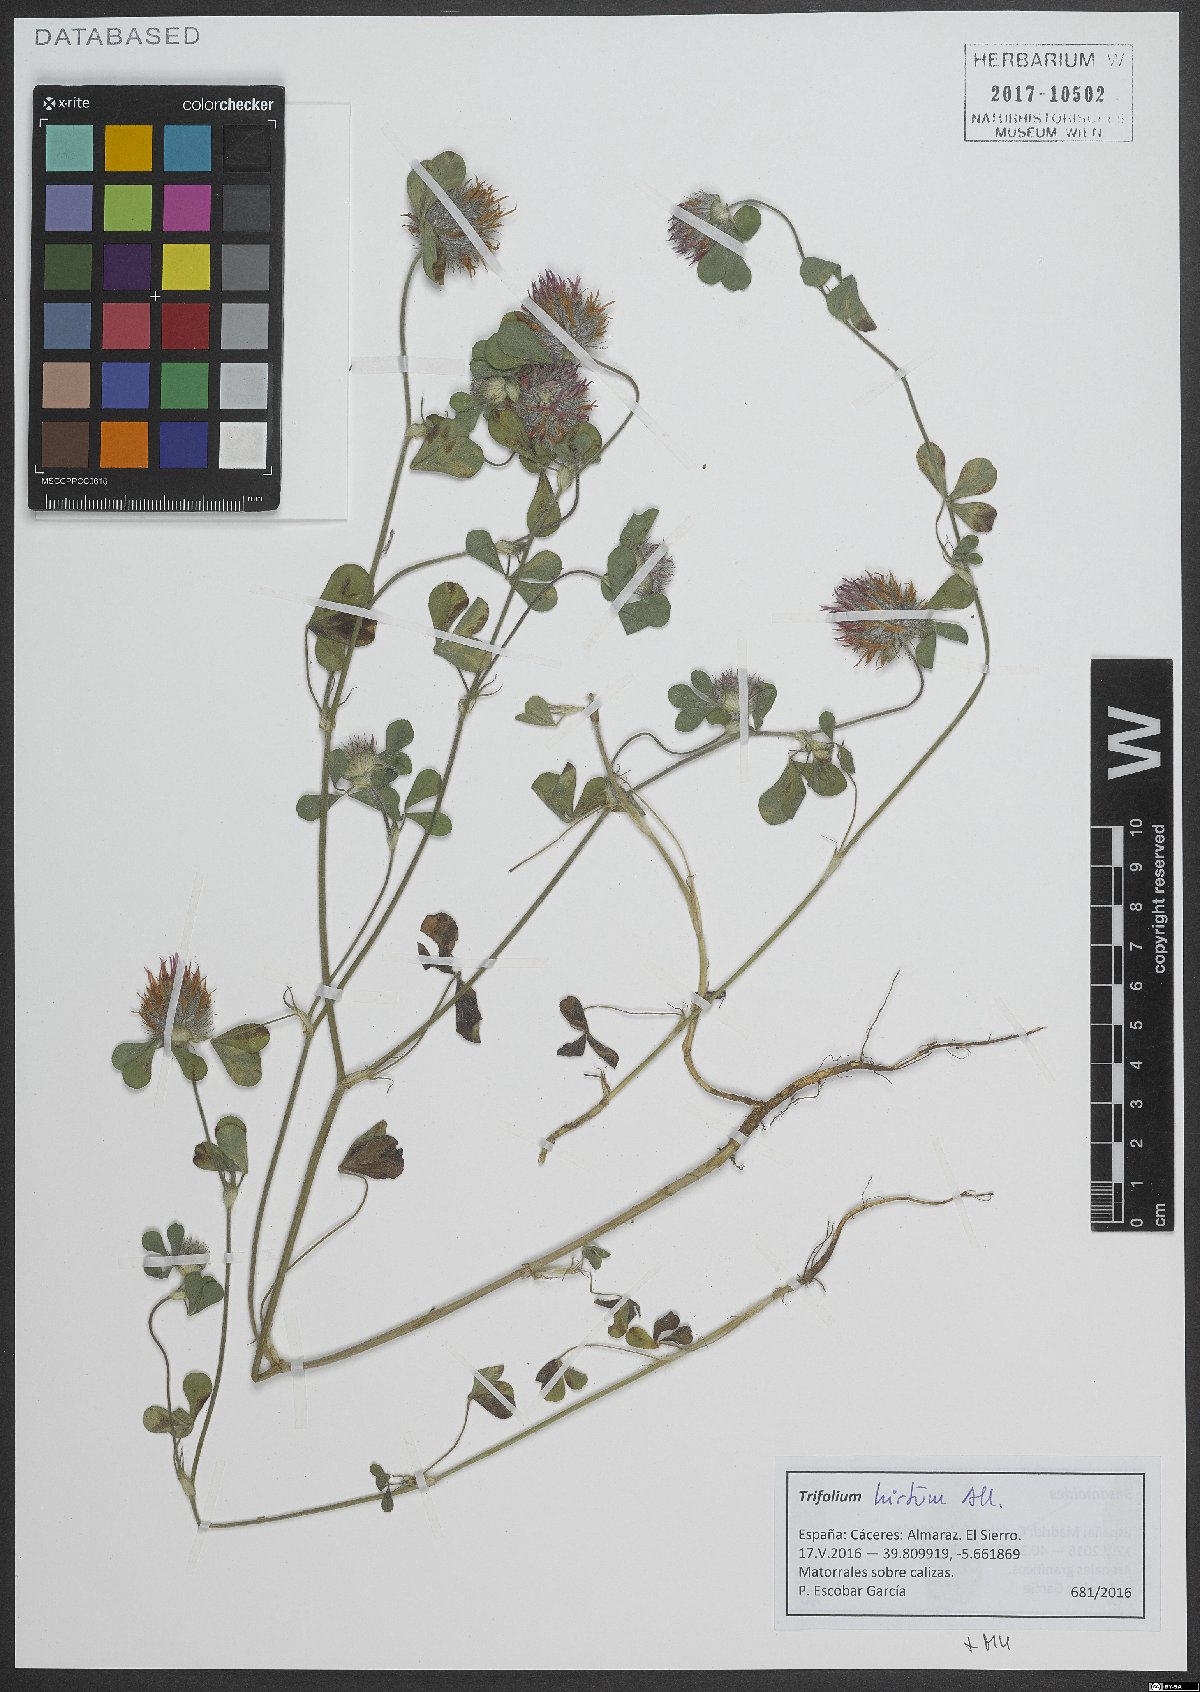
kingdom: Plantae
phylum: Tracheophyta
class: Magnoliopsida
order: Fabales
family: Fabaceae
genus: Trifolium
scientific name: Trifolium hirtum
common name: Rose clover
